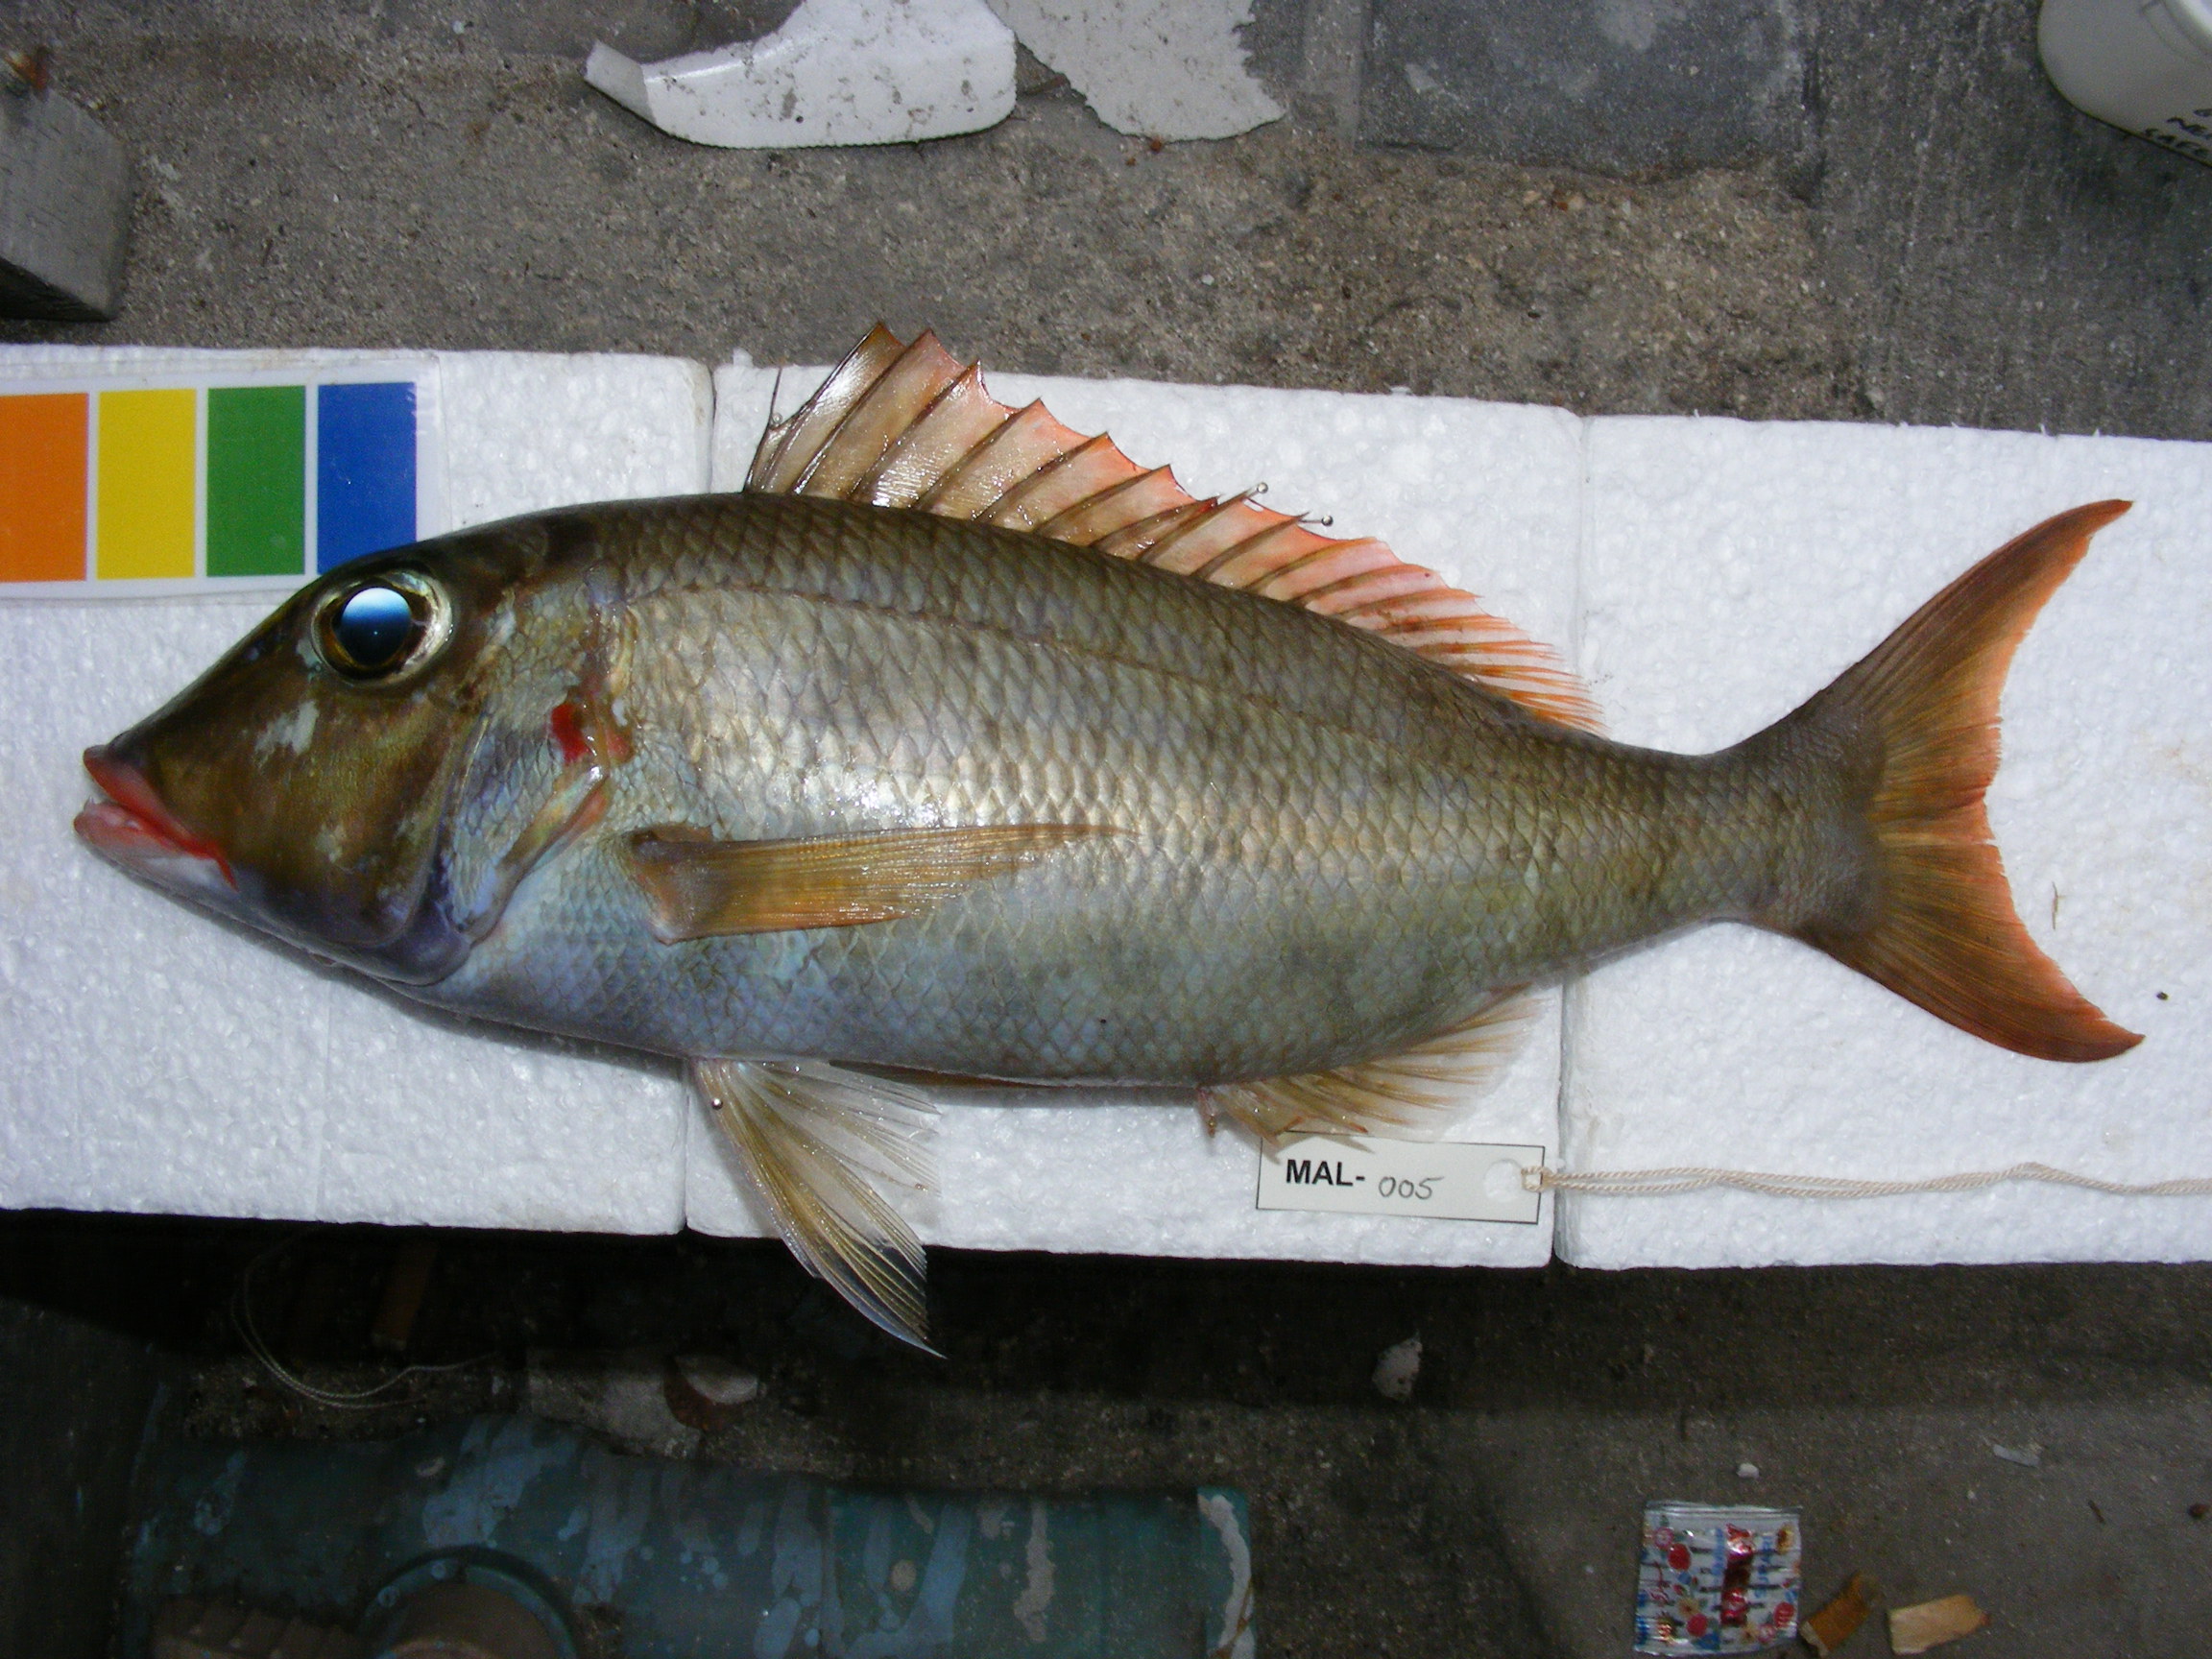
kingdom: Animalia
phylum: Chordata
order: Perciformes
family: Lethrinidae
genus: Lethrinus
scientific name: Lethrinus
